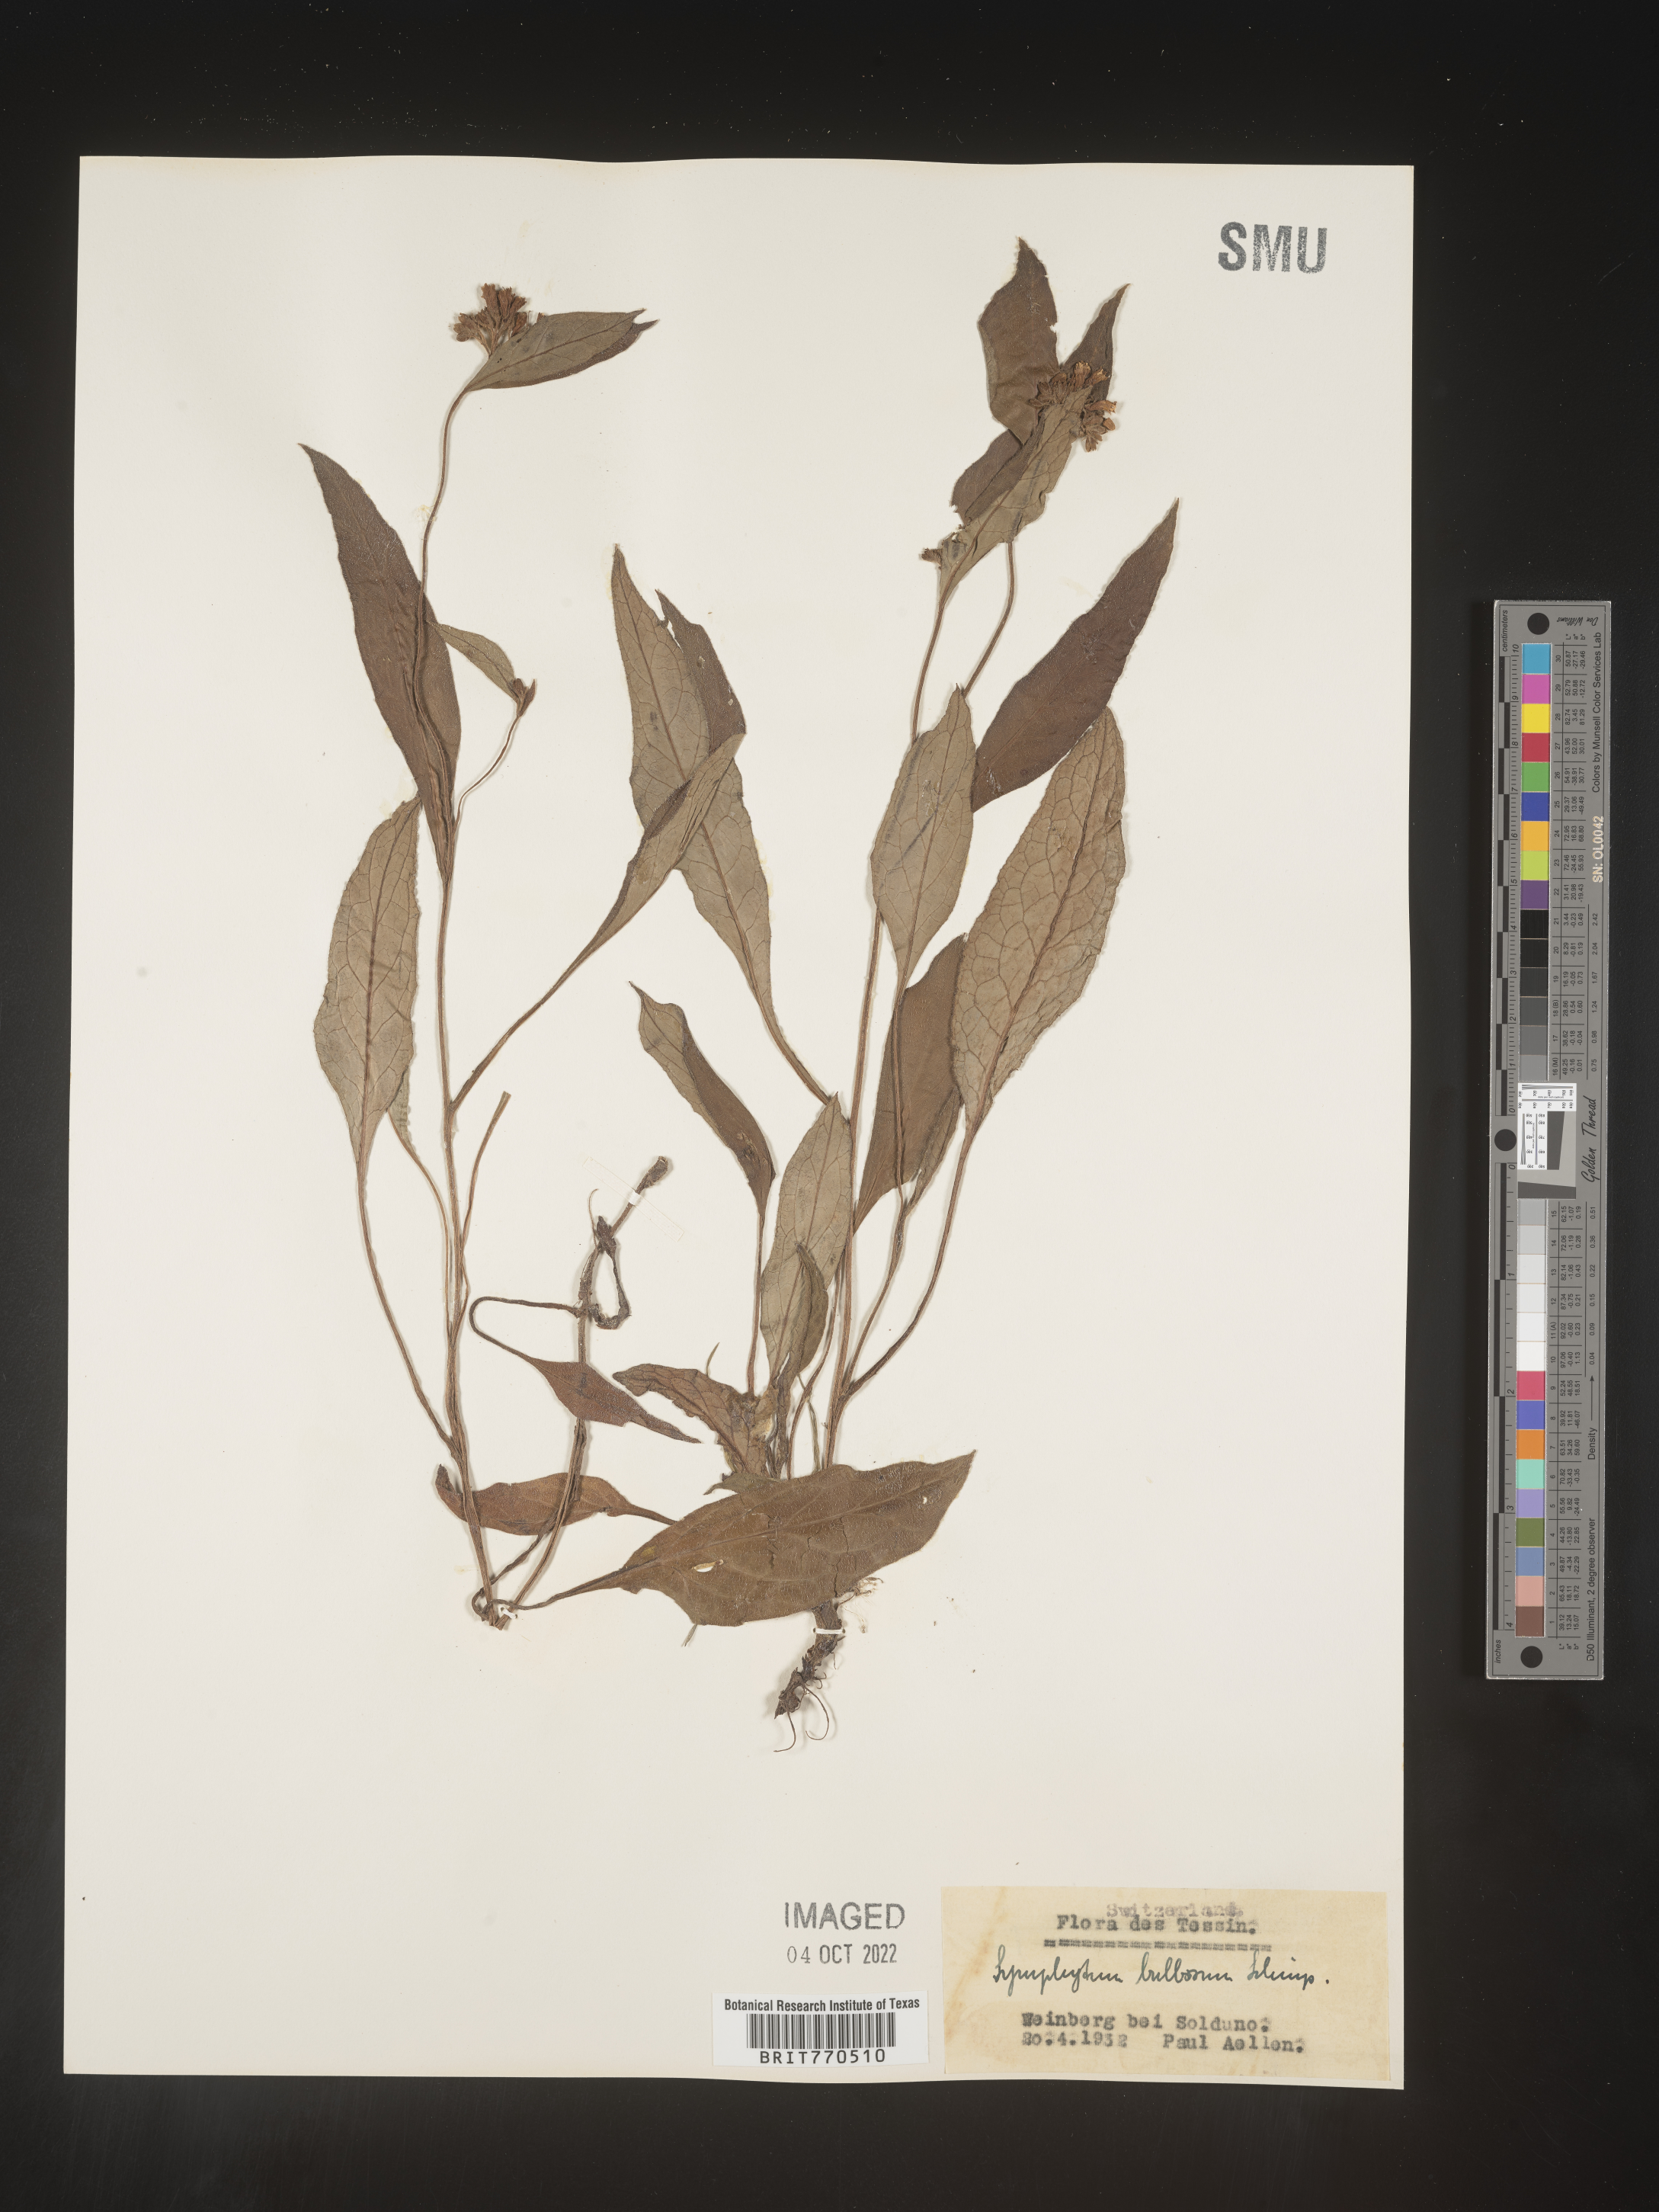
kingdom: Plantae
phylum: Tracheophyta
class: Magnoliopsida
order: Boraginales
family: Boraginaceae
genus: Symphytum
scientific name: Symphytum
